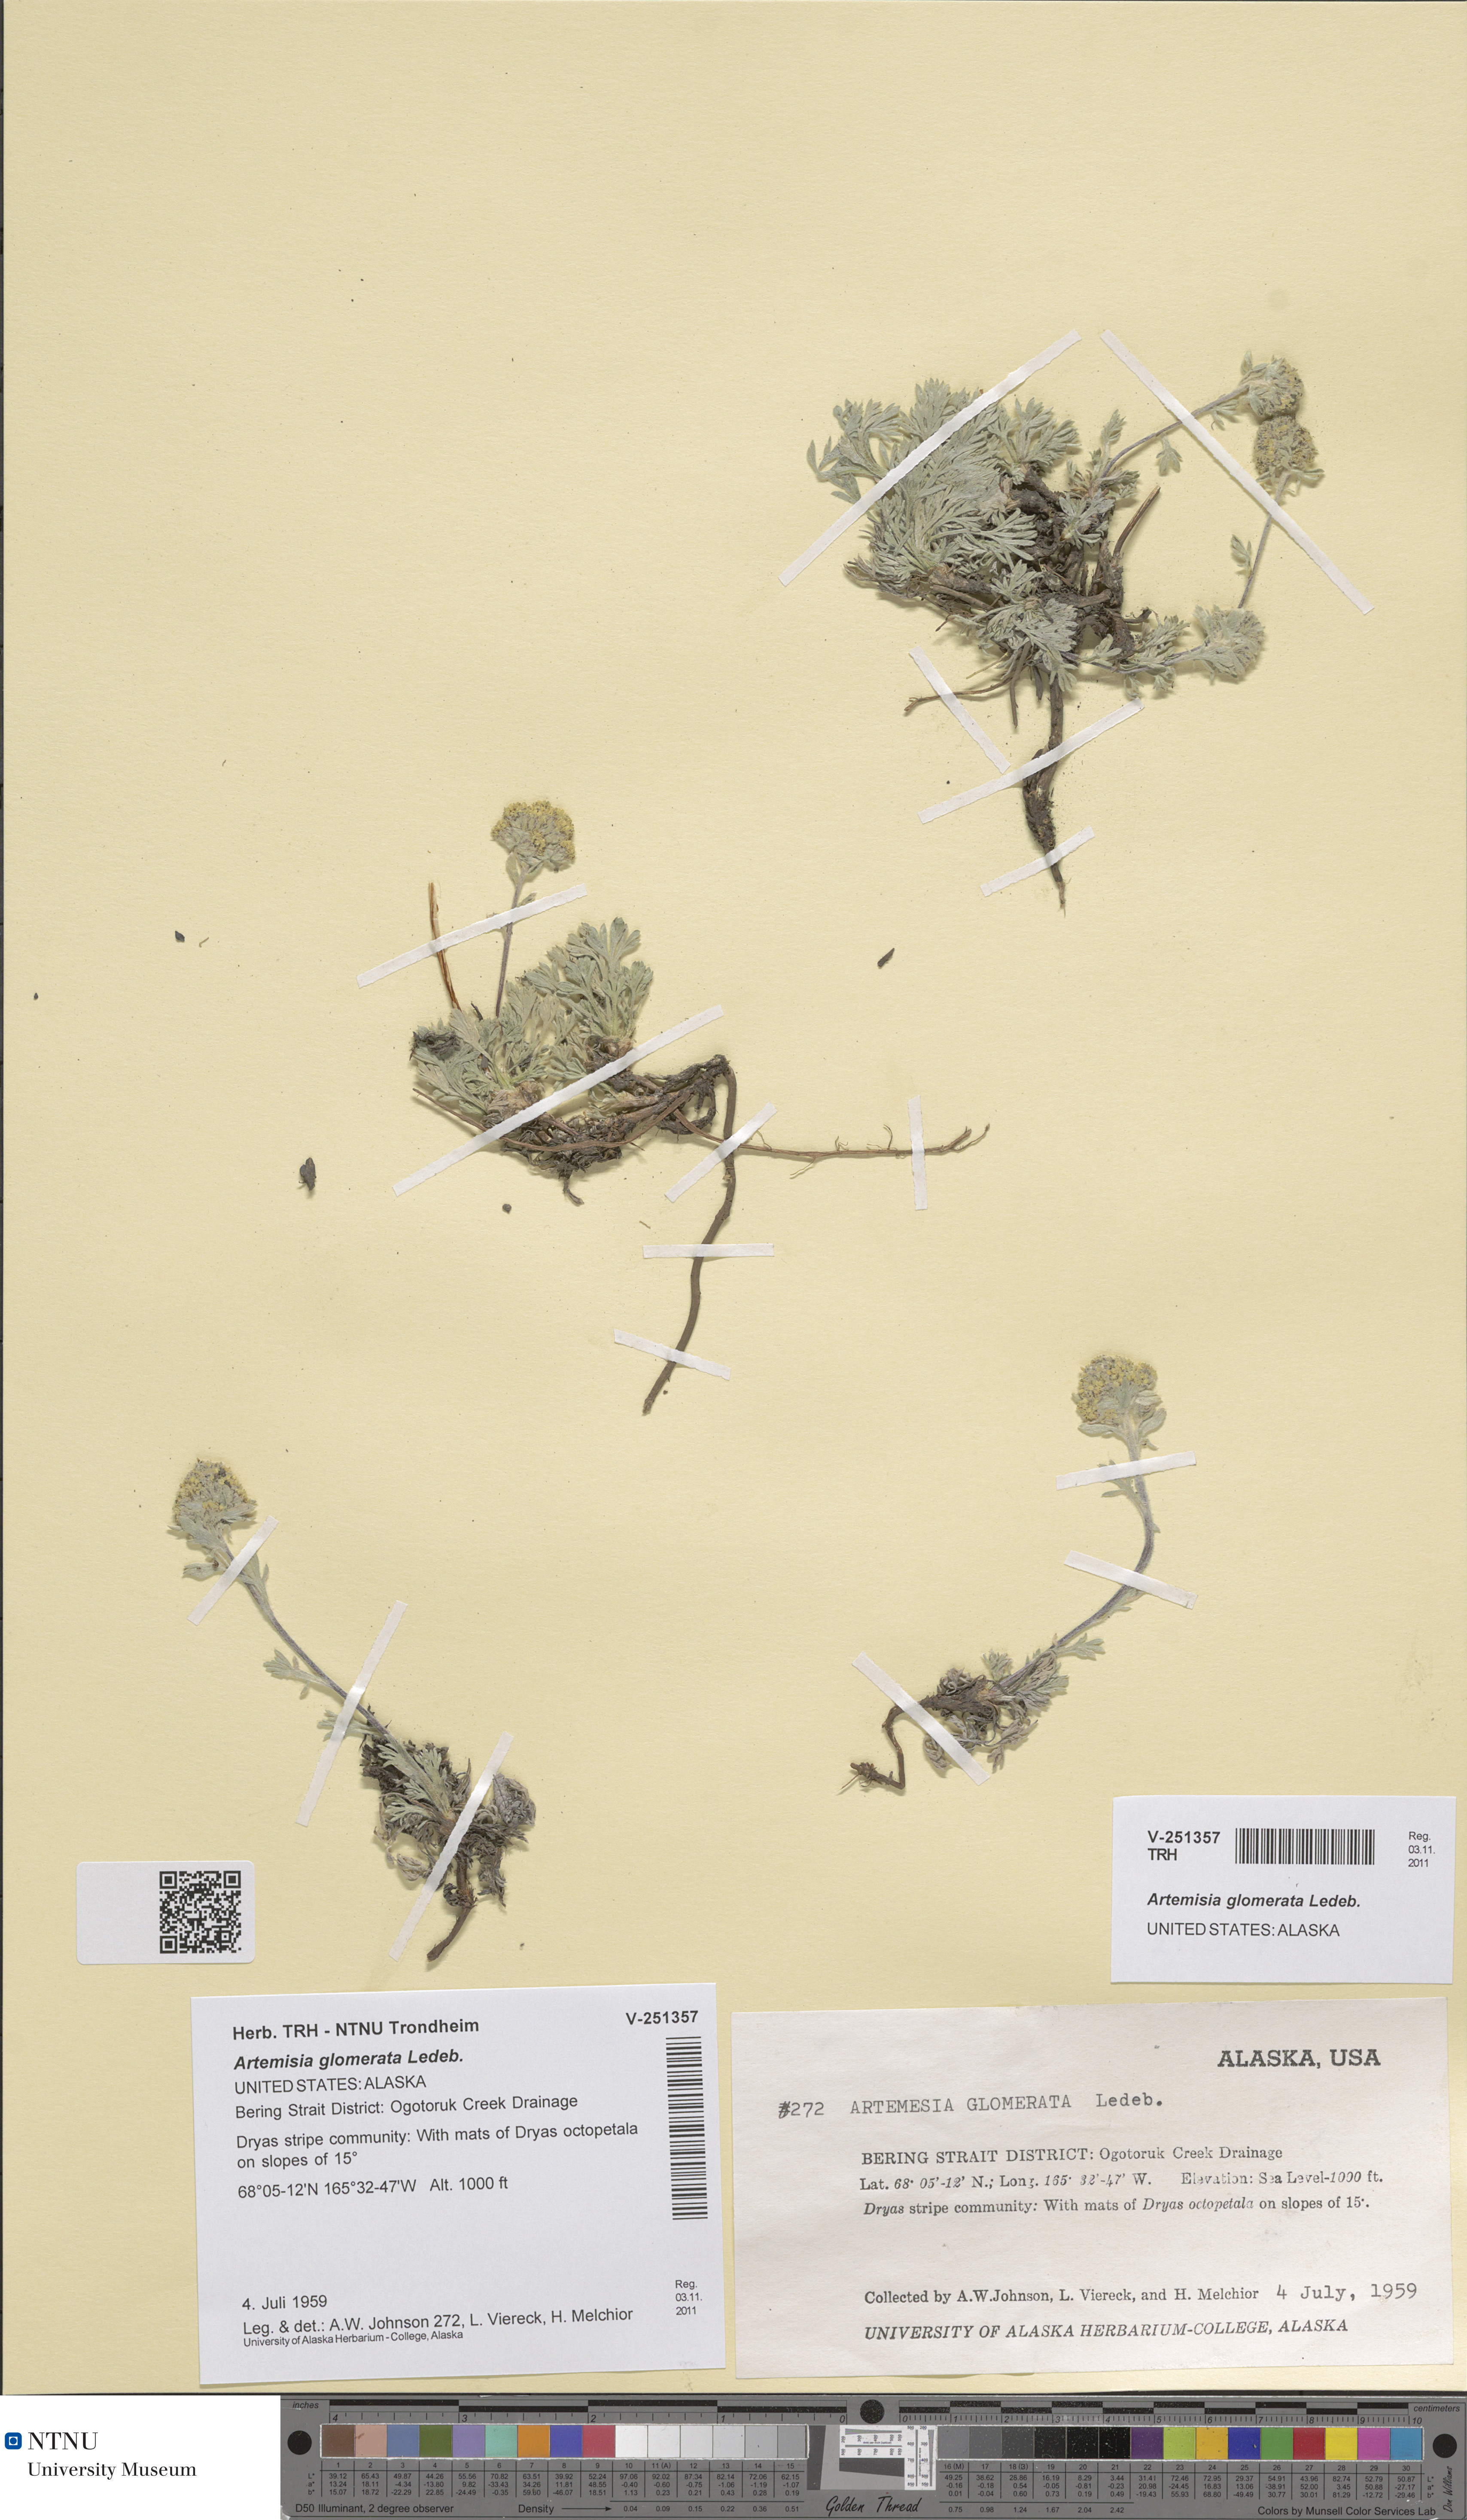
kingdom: Plantae
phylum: Tracheophyta
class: Magnoliopsida
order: Asterales
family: Asteraceae
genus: Artemisia
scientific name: Artemisia glomerata
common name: Pacific alpine wormwood
